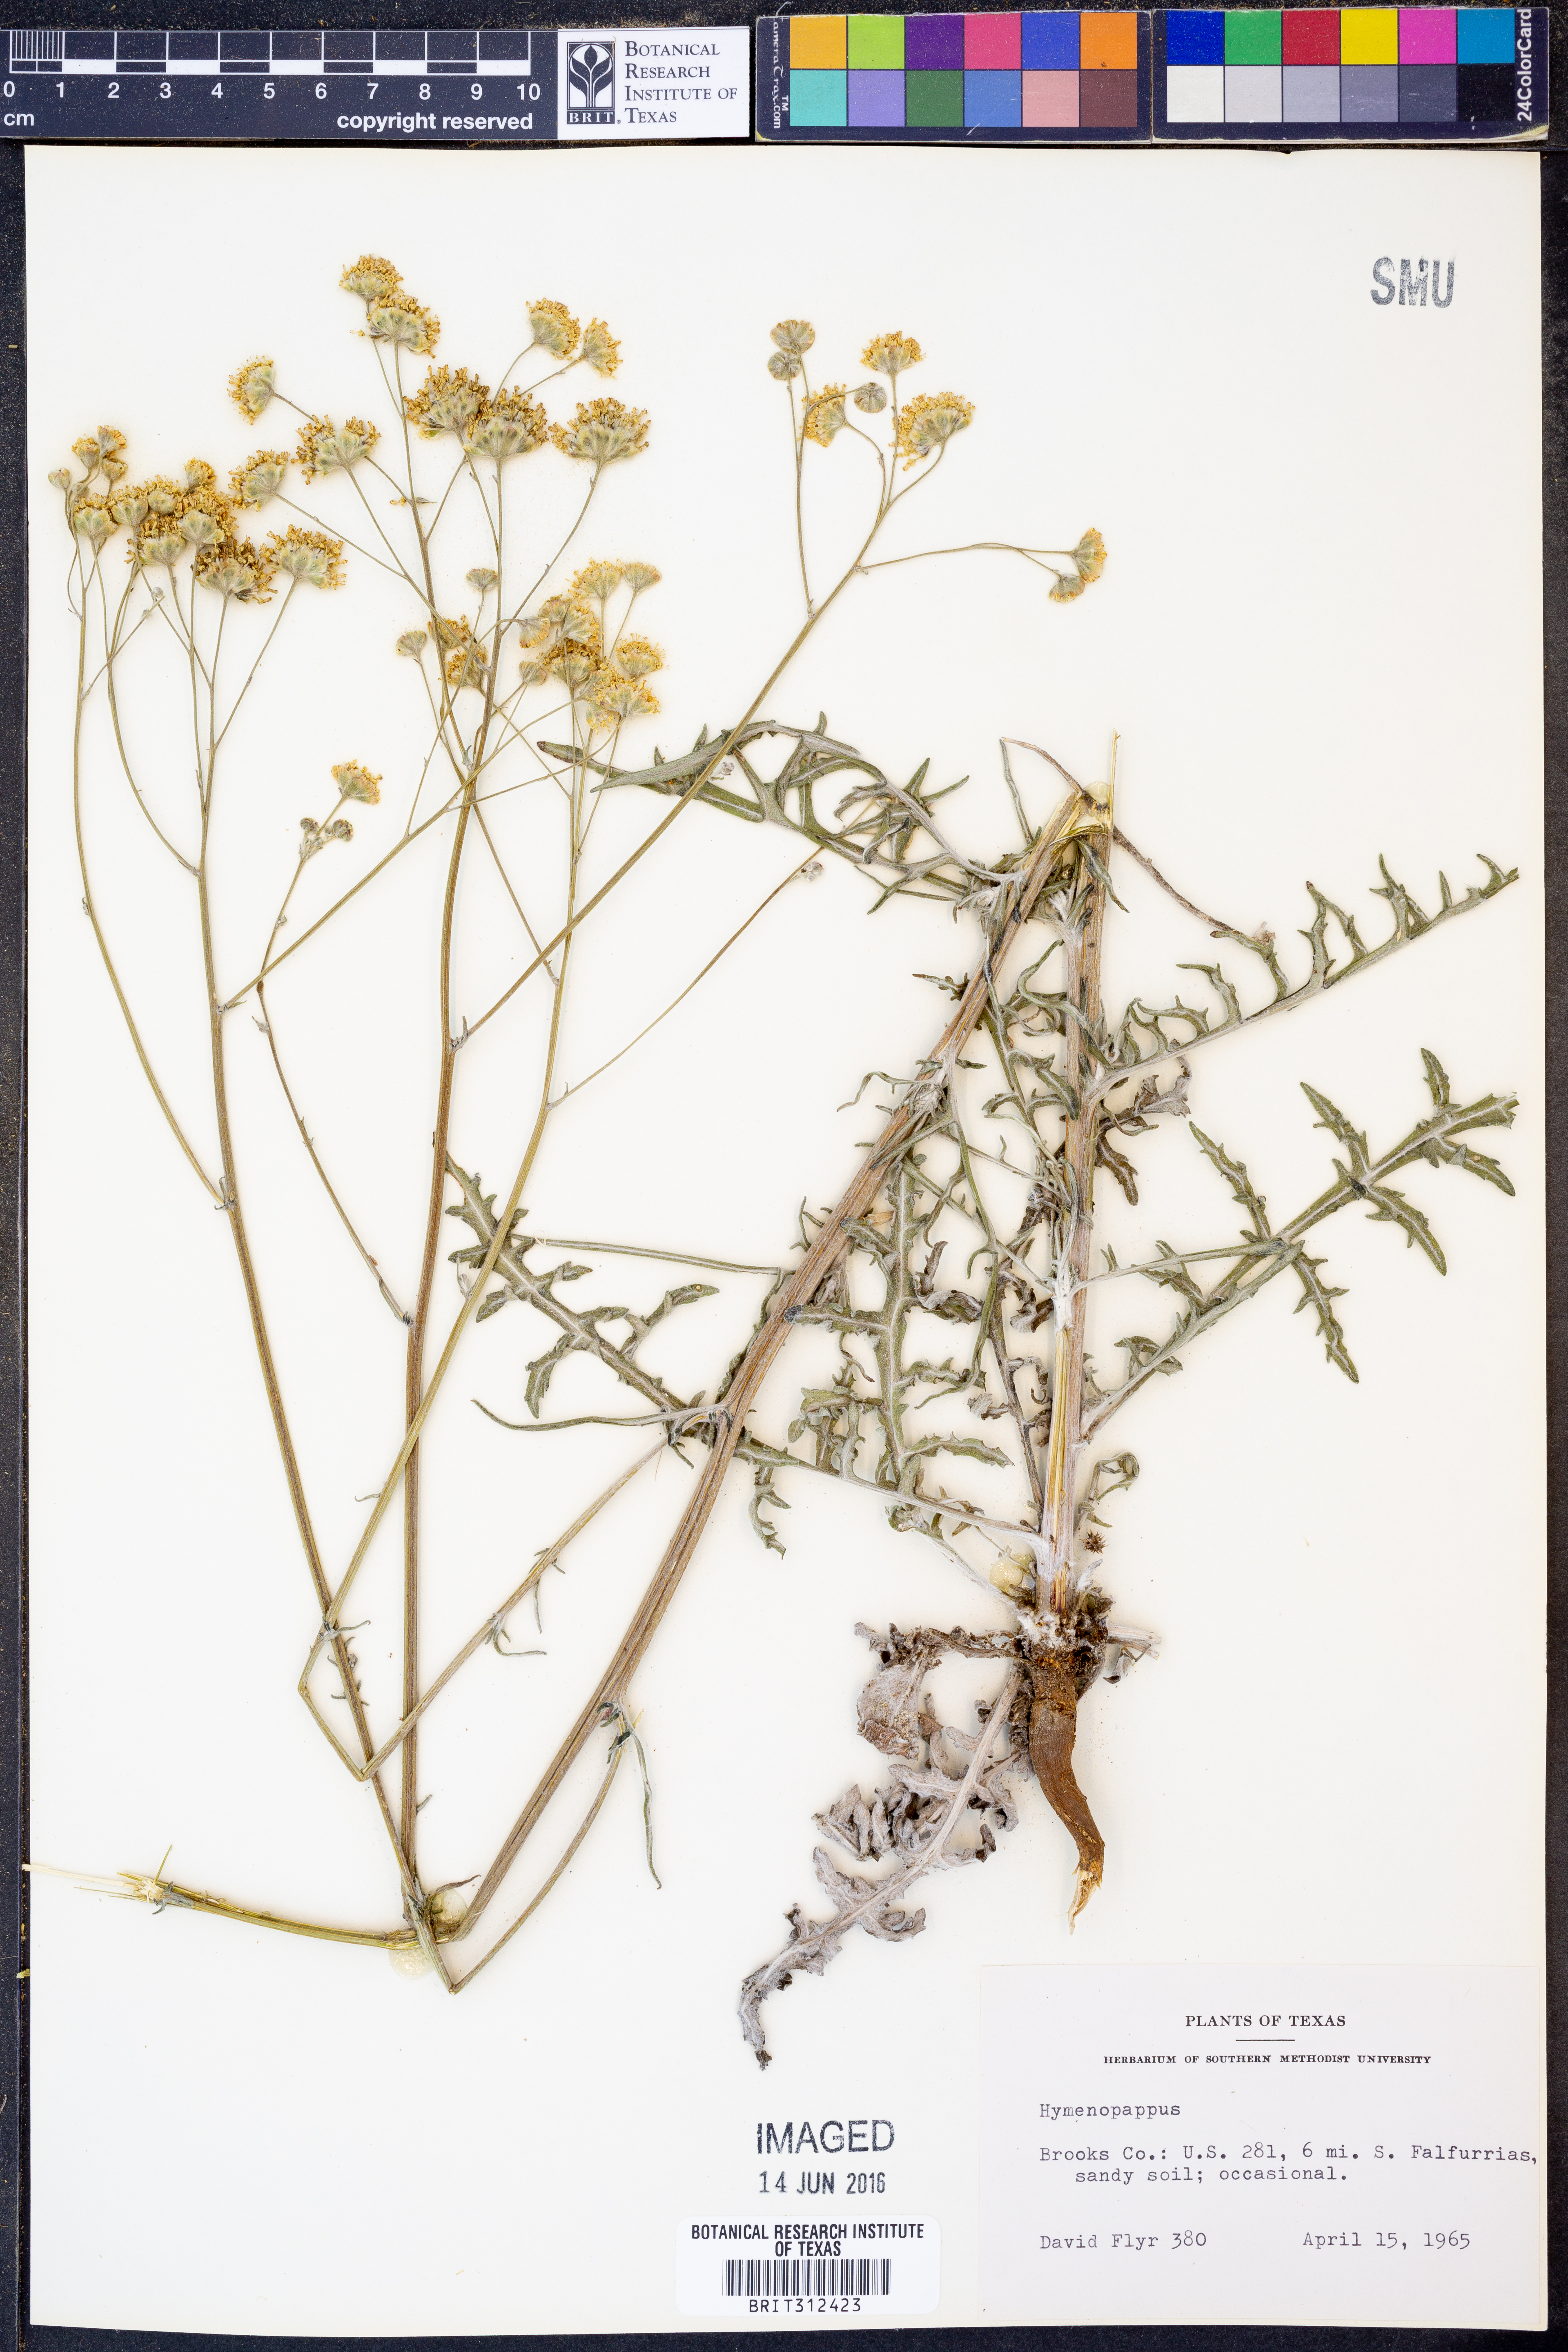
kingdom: Plantae
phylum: Tracheophyta
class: Magnoliopsida
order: Asterales
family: Asteraceae
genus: Hymenopappus
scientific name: Hymenopappus
